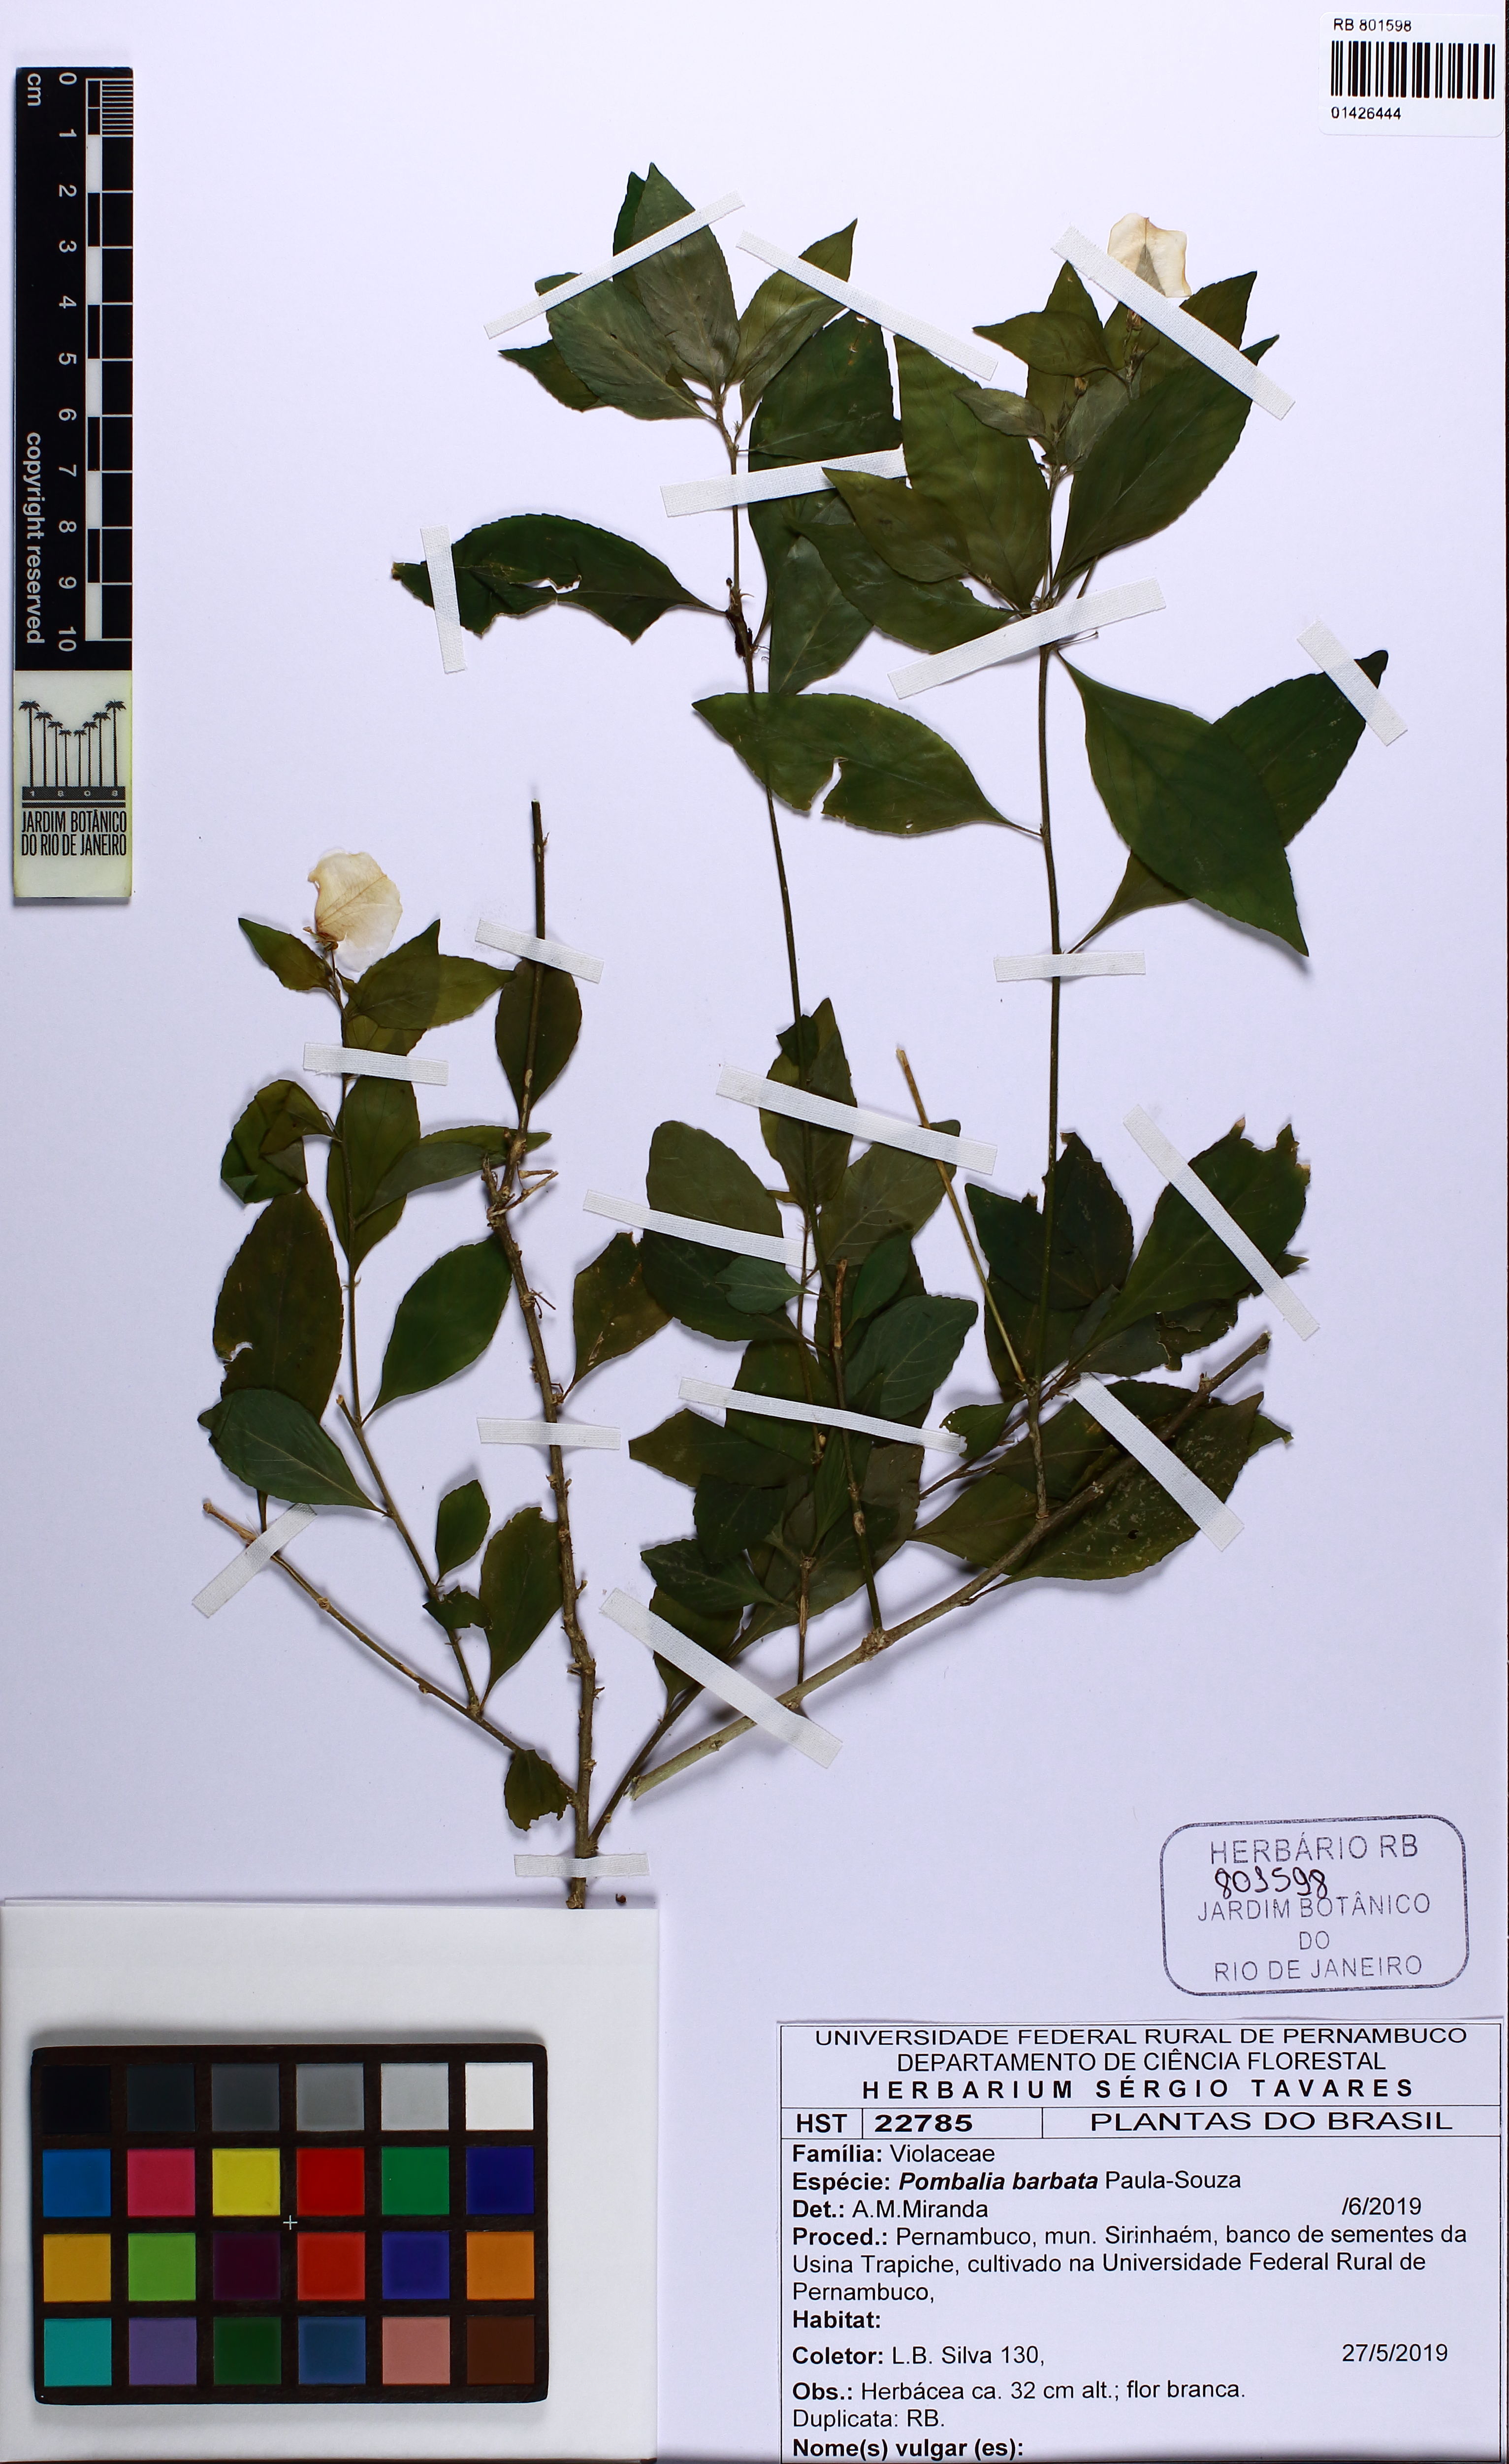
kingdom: Plantae
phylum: Tracheophyta
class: Magnoliopsida
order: Malpighiales
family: Violaceae
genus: Pombalia
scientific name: Pombalia barbata
